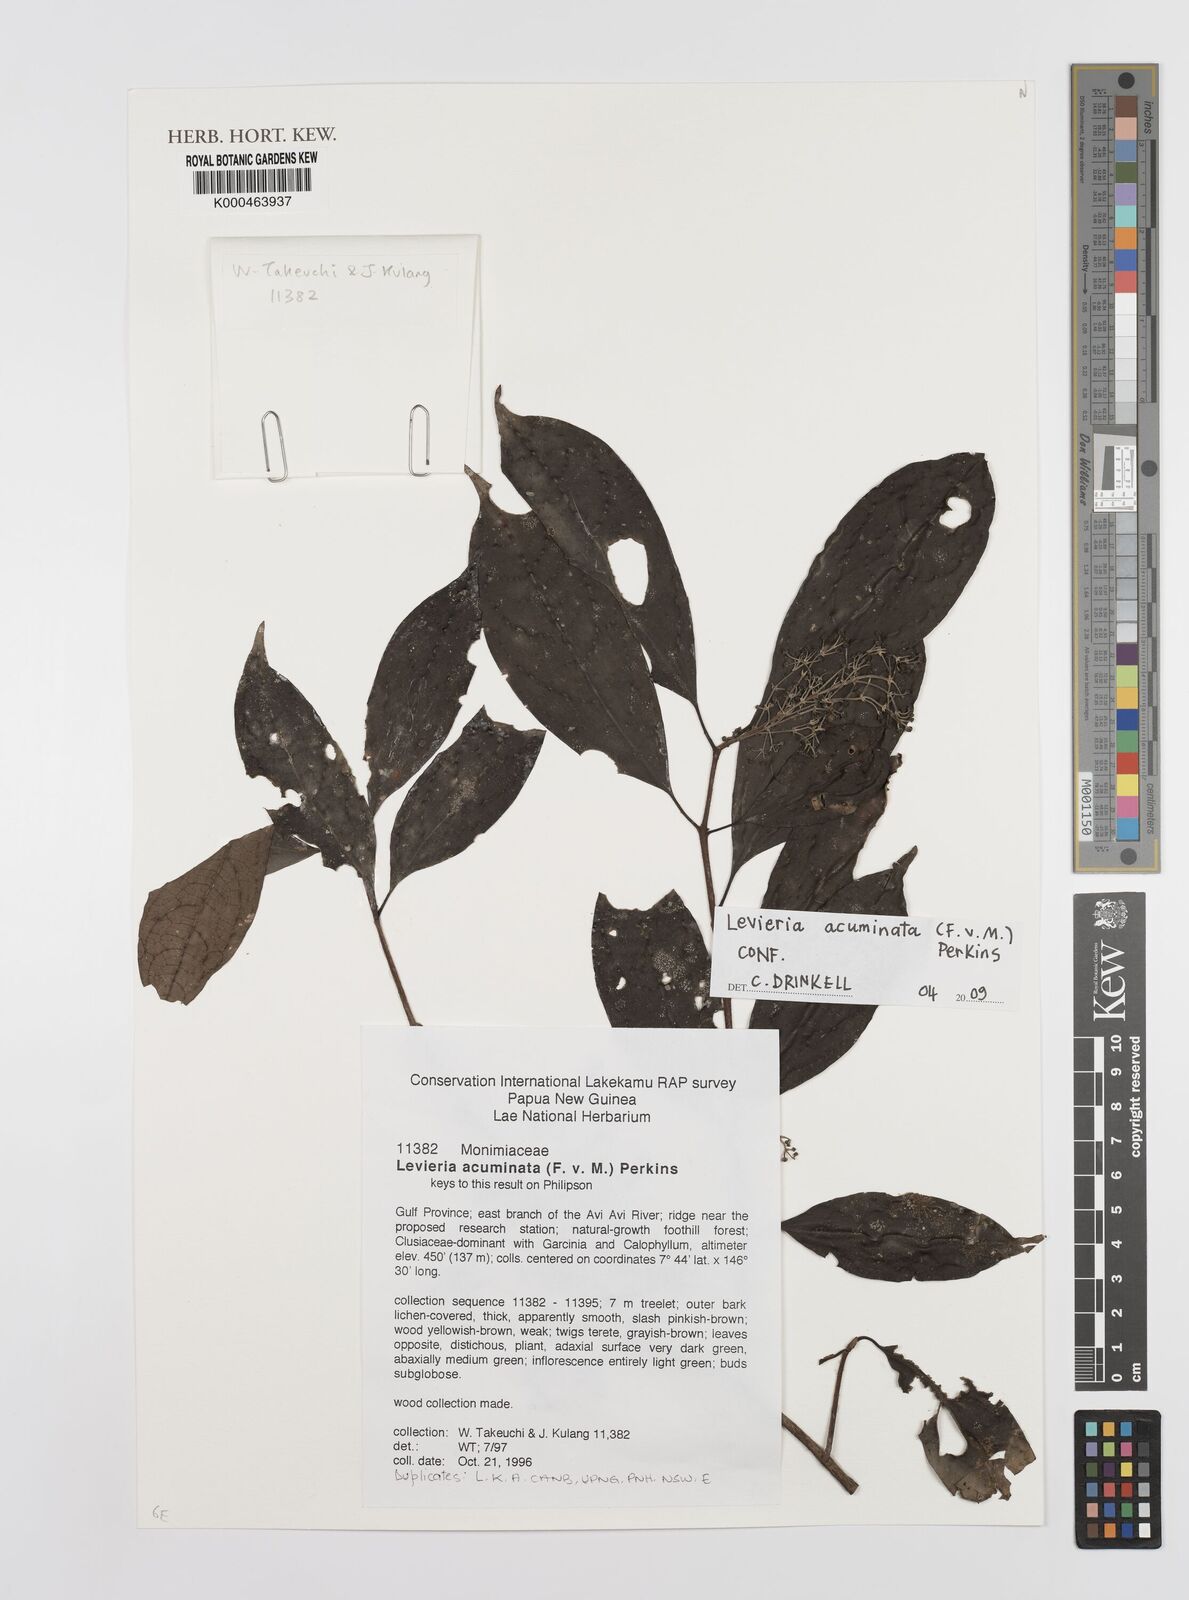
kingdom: Plantae
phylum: Tracheophyta
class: Magnoliopsida
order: Laurales
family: Monimiaceae
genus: Levieria
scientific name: Levieria acuminata
